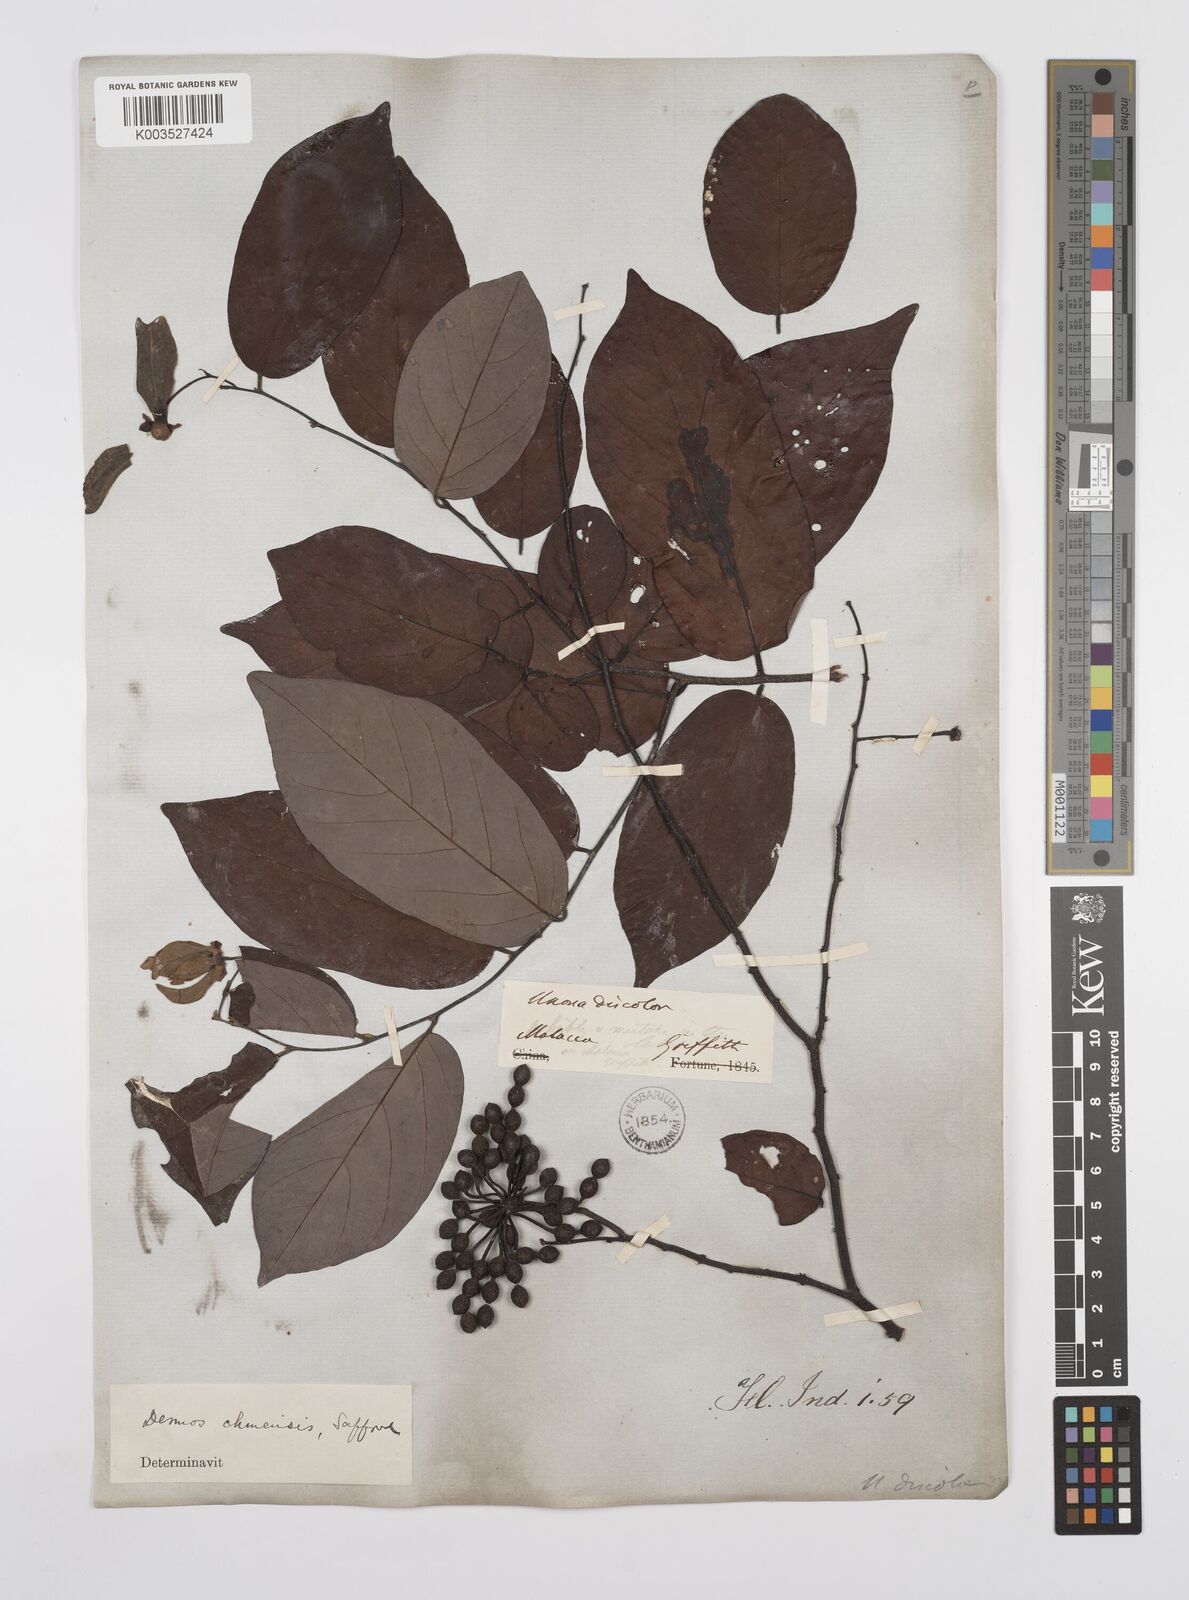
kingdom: Plantae
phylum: Tracheophyta
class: Magnoliopsida
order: Magnoliales
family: Annonaceae
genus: Desmos
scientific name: Desmos chinensis
